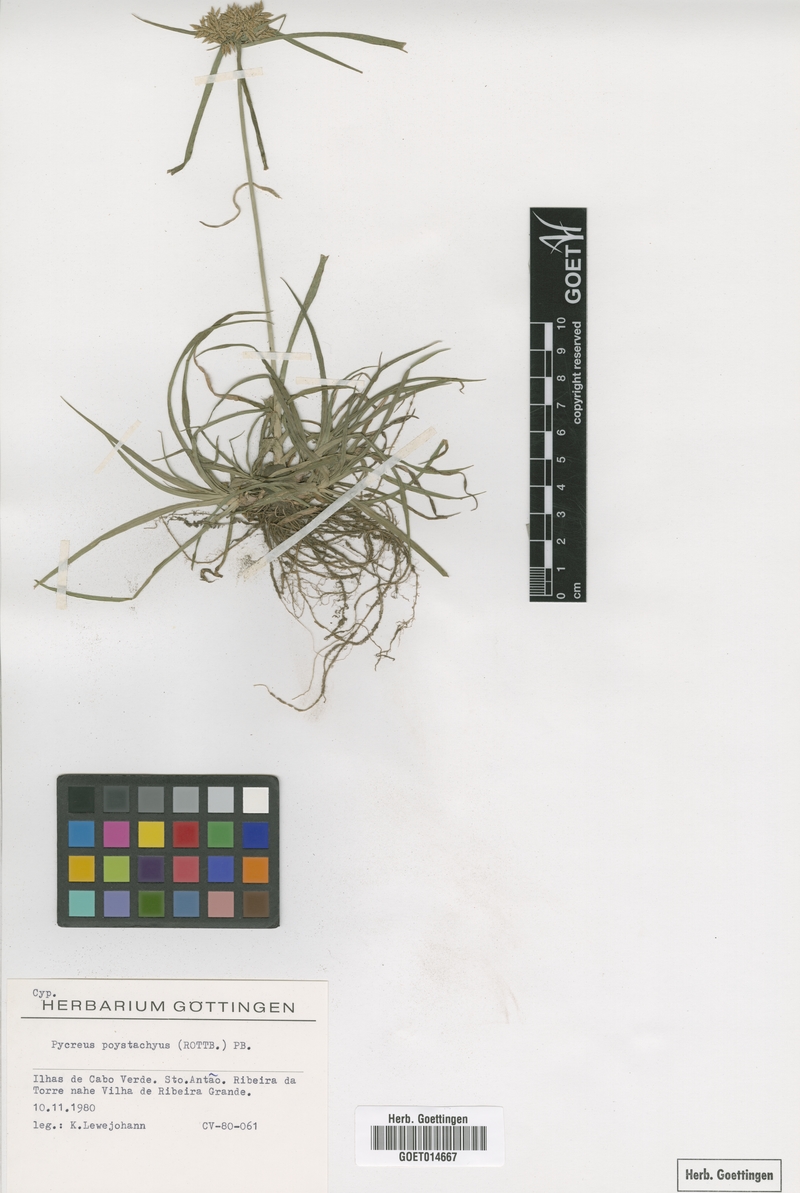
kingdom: Plantae
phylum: Tracheophyta
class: Liliopsida
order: Poales
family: Cyperaceae
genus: Cyperus
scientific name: Cyperus polystachyos
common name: Bunchy flat sedge
